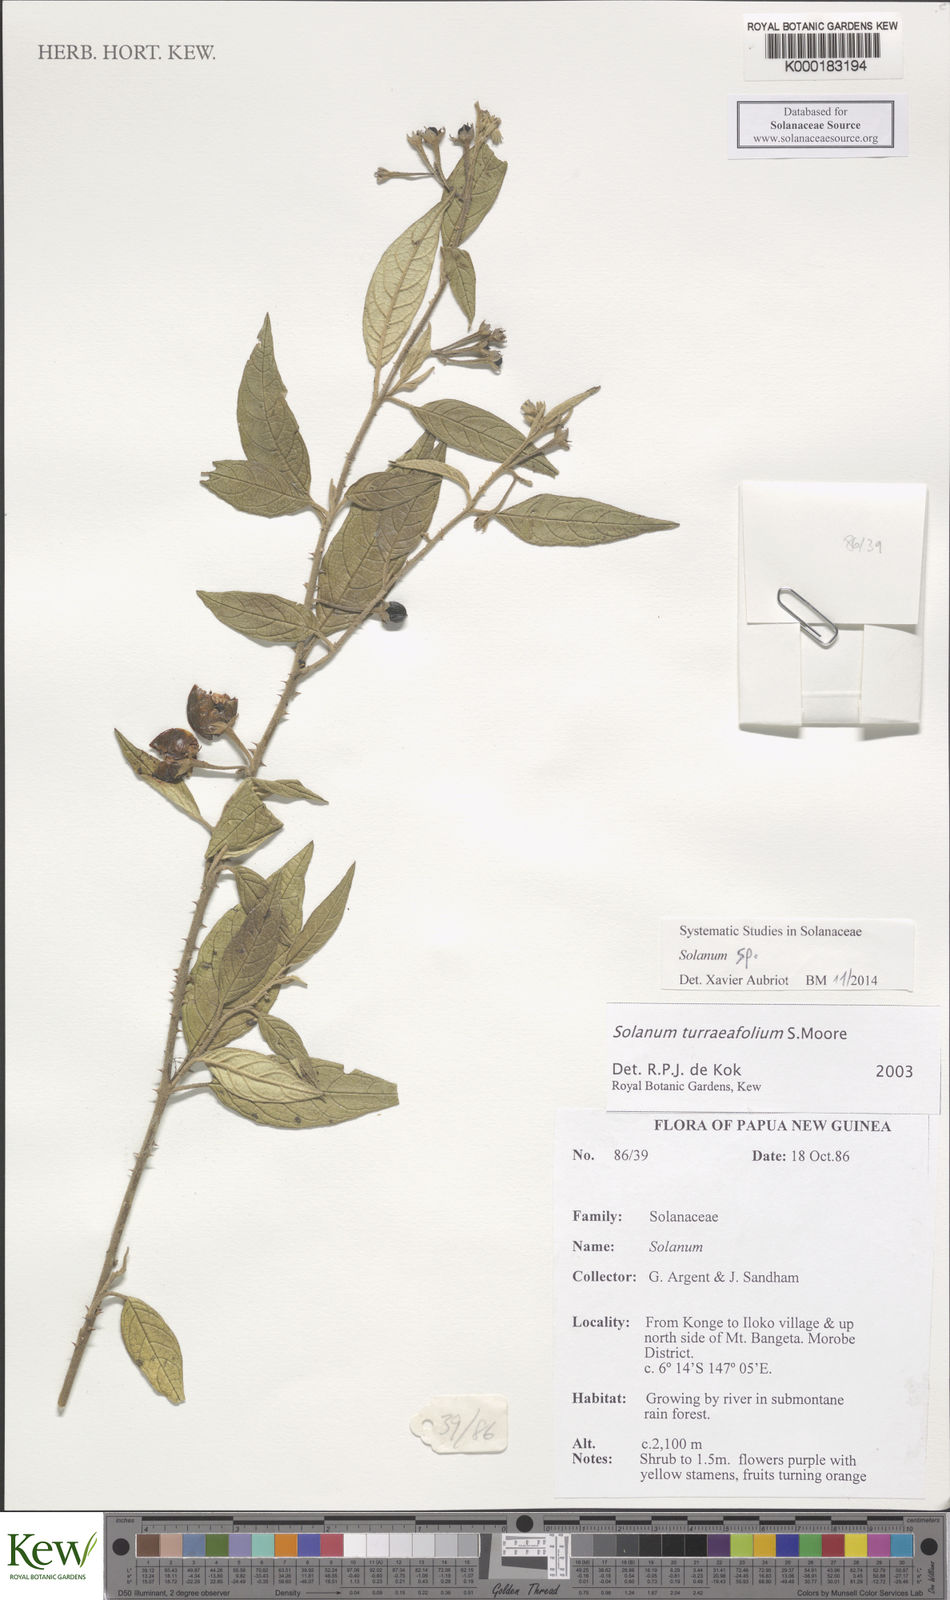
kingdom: Plantae
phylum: Tracheophyta
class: Magnoliopsida
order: Solanales
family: Solanaceae
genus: Solanum
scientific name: Solanum
